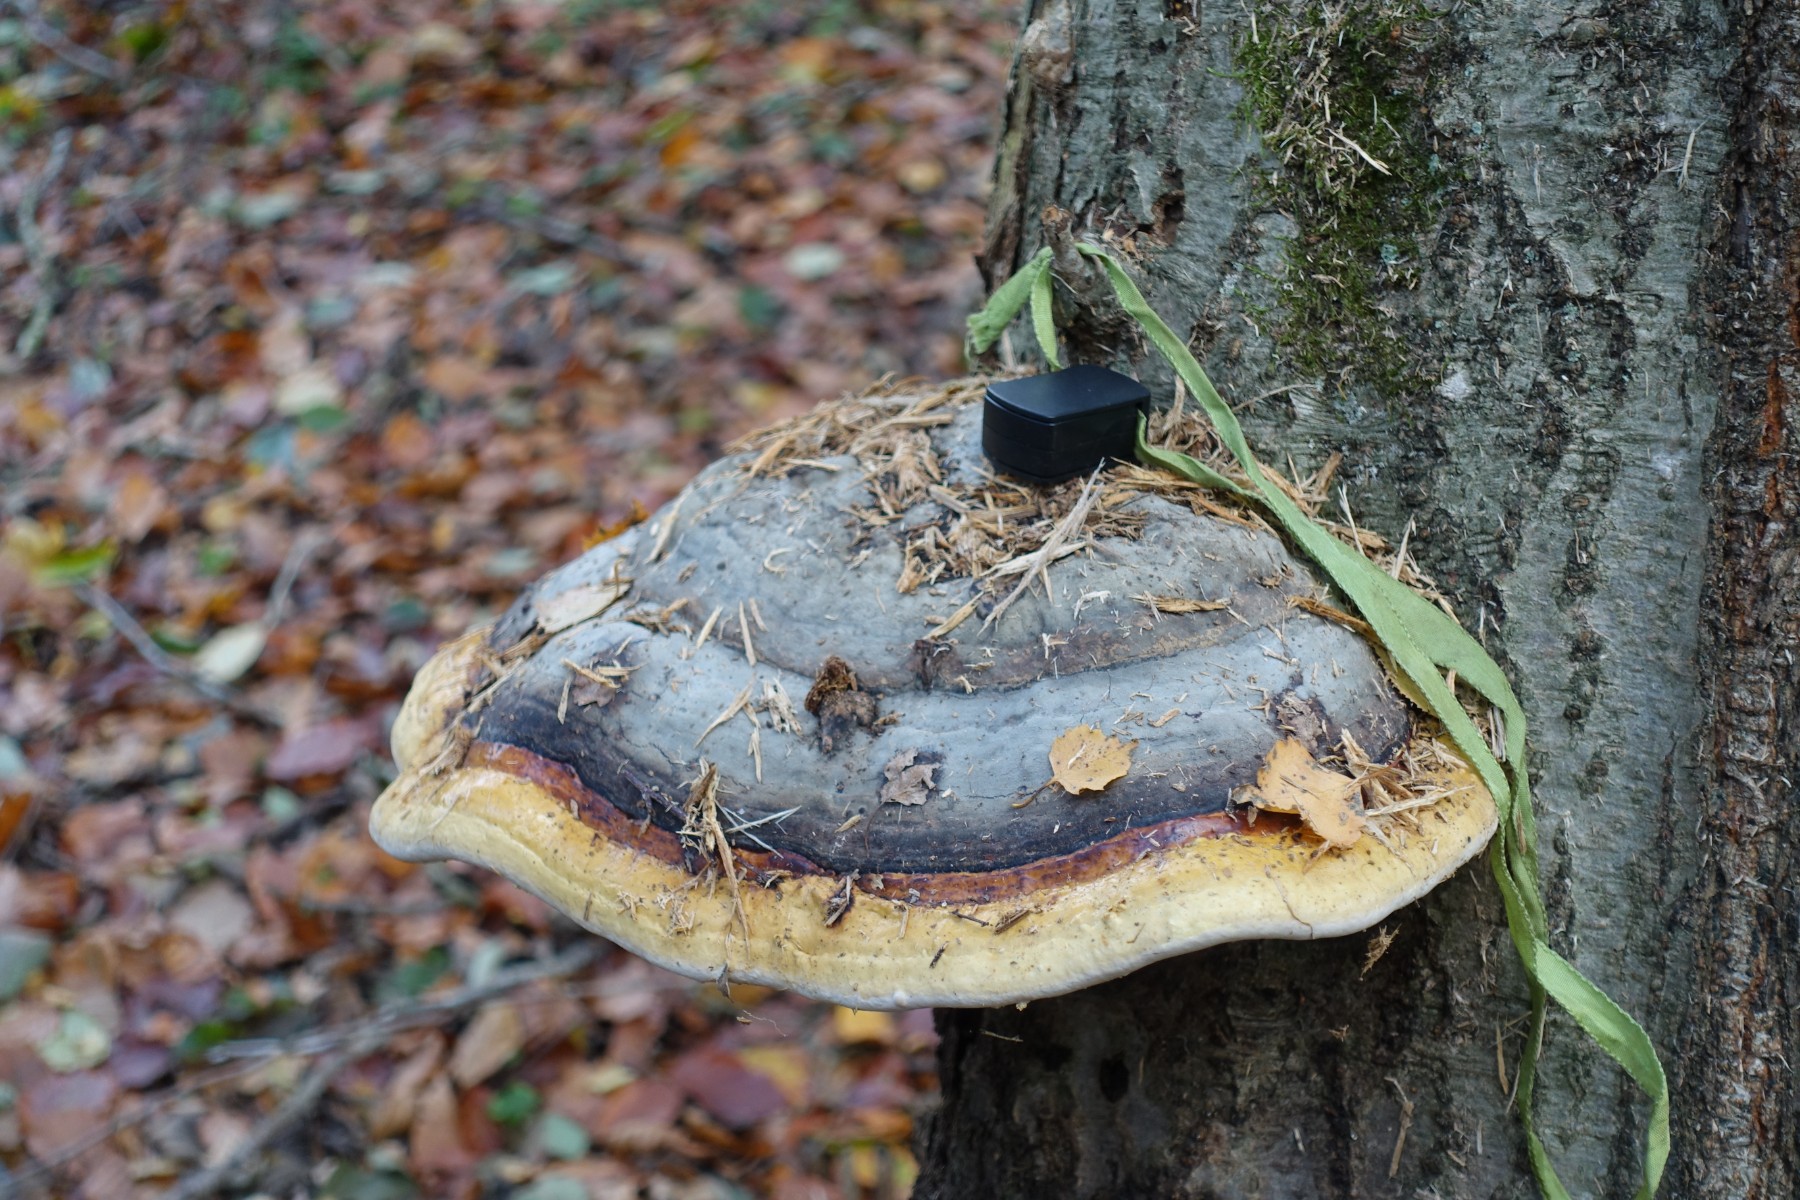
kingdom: Fungi
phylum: Basidiomycota
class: Agaricomycetes
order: Polyporales
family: Fomitopsidaceae
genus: Fomitopsis
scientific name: Fomitopsis pinicola
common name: randbæltet hovporesvamp
